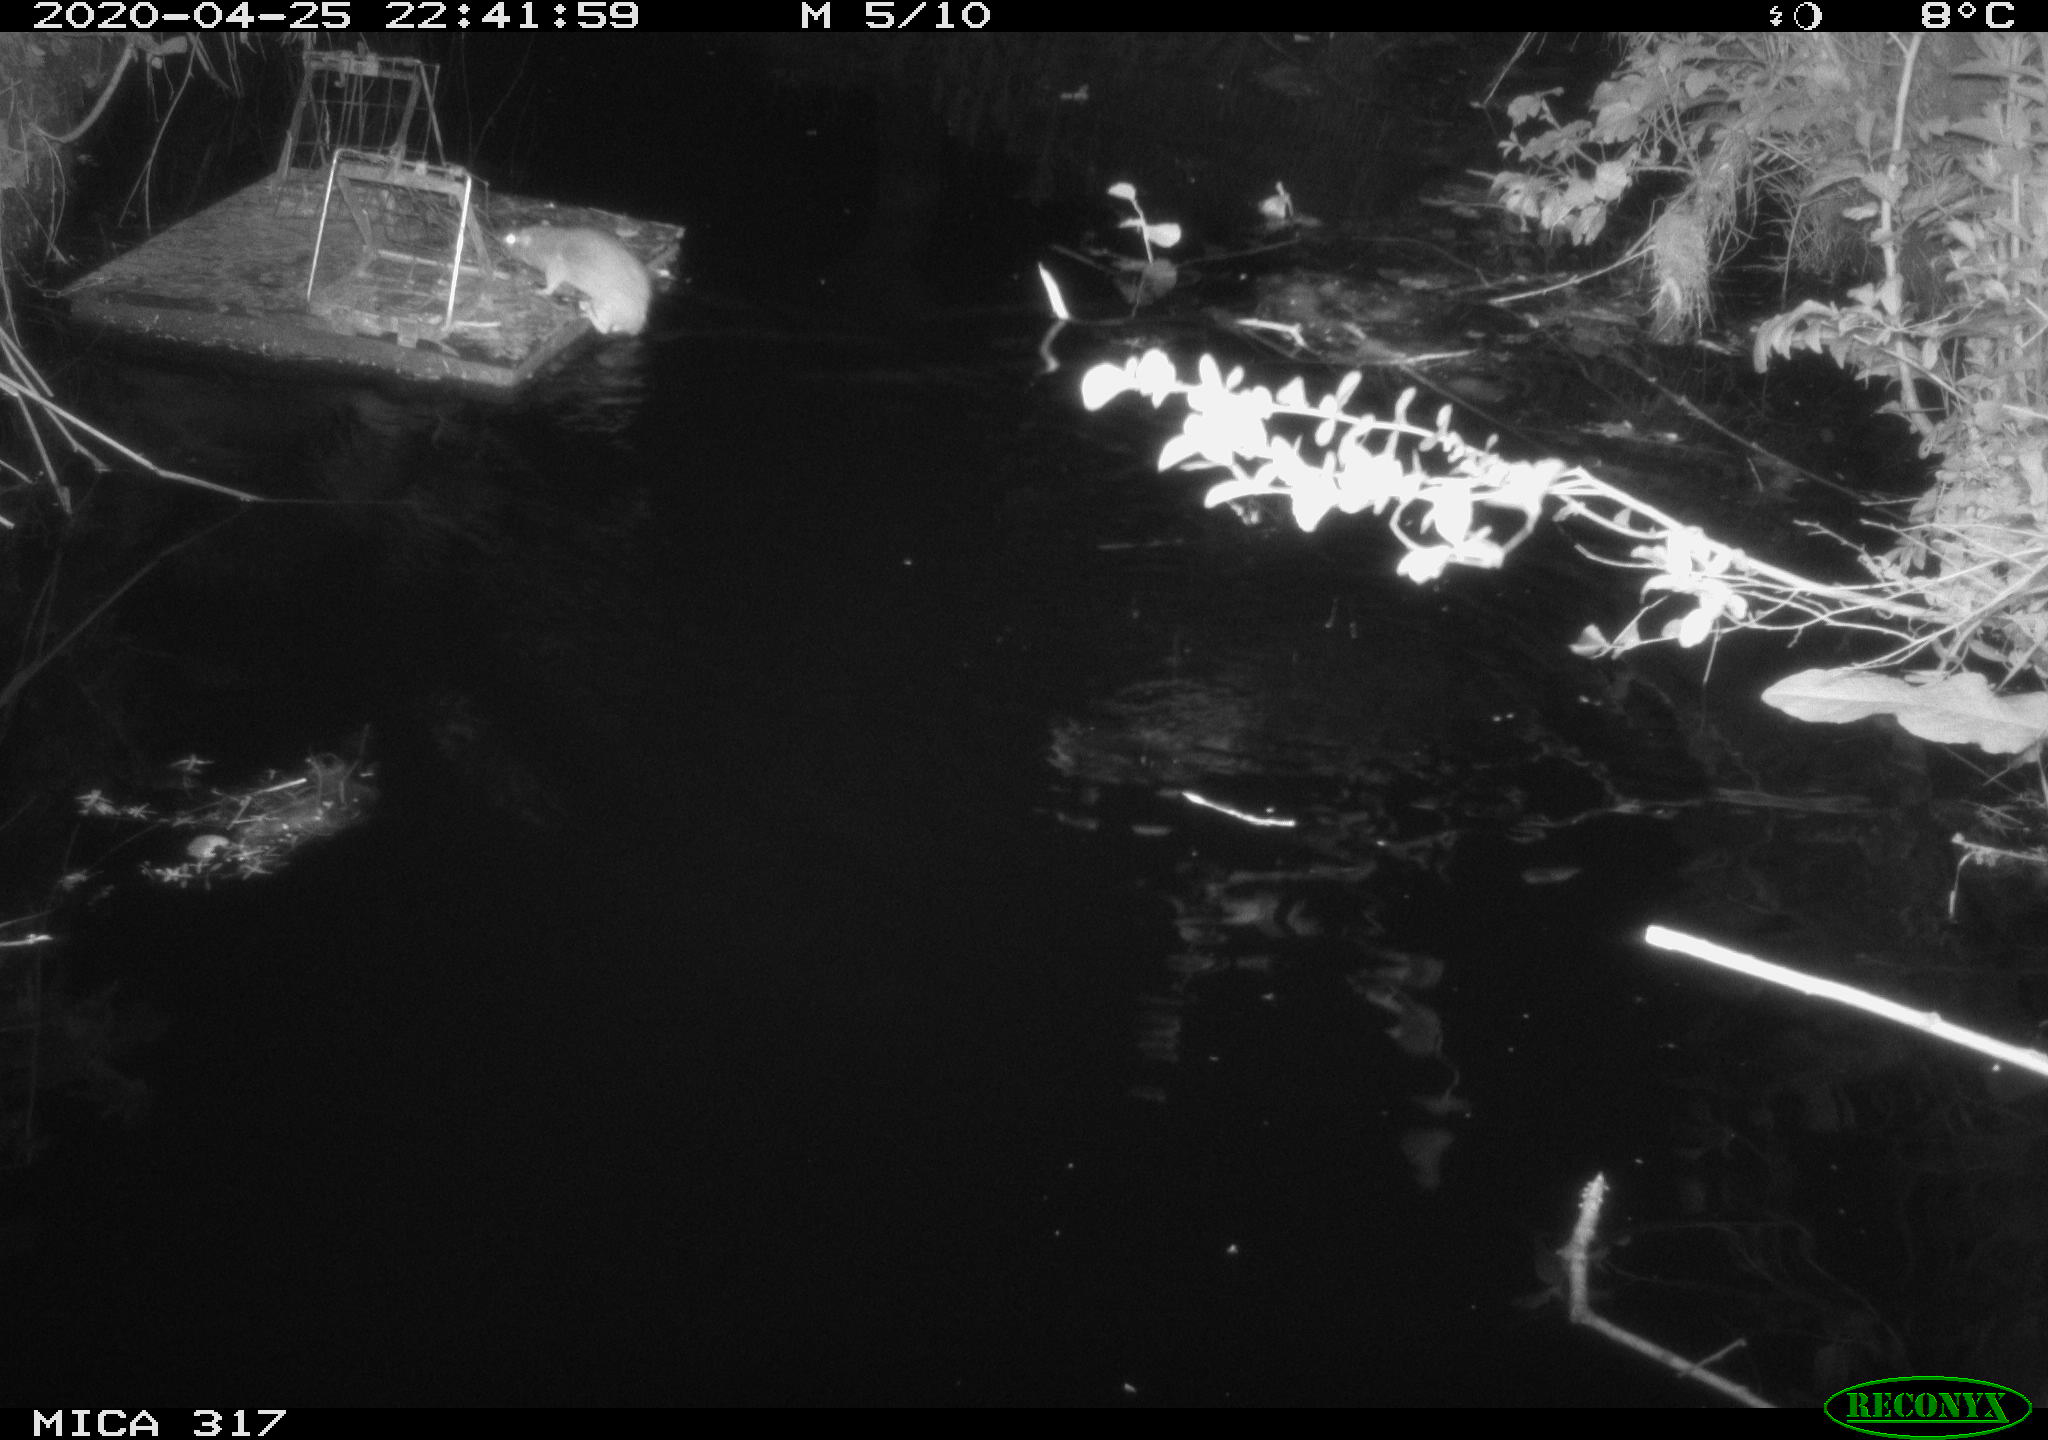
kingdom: Animalia
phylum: Chordata
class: Mammalia
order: Rodentia
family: Muridae
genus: Rattus
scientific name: Rattus norvegicus
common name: Brown rat
